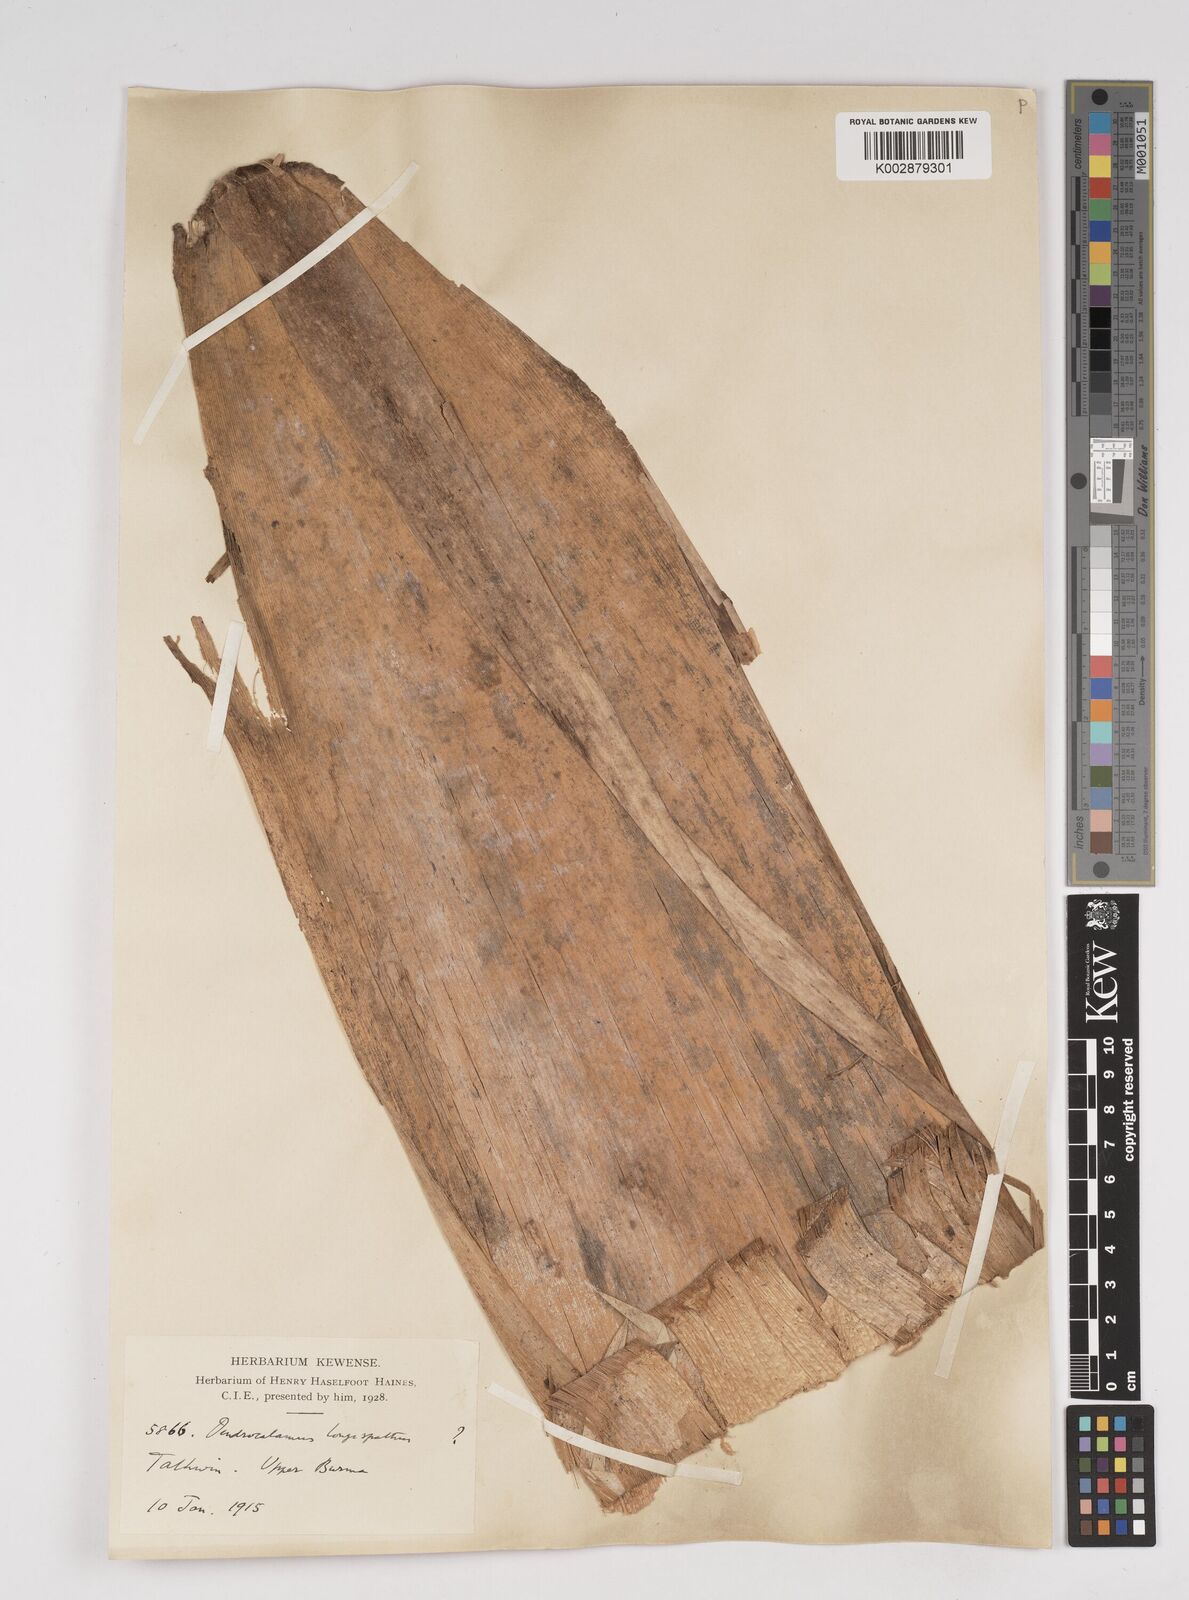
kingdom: Plantae
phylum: Tracheophyta
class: Liliopsida
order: Poales
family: Poaceae
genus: Dendrocalamus
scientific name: Dendrocalamus
